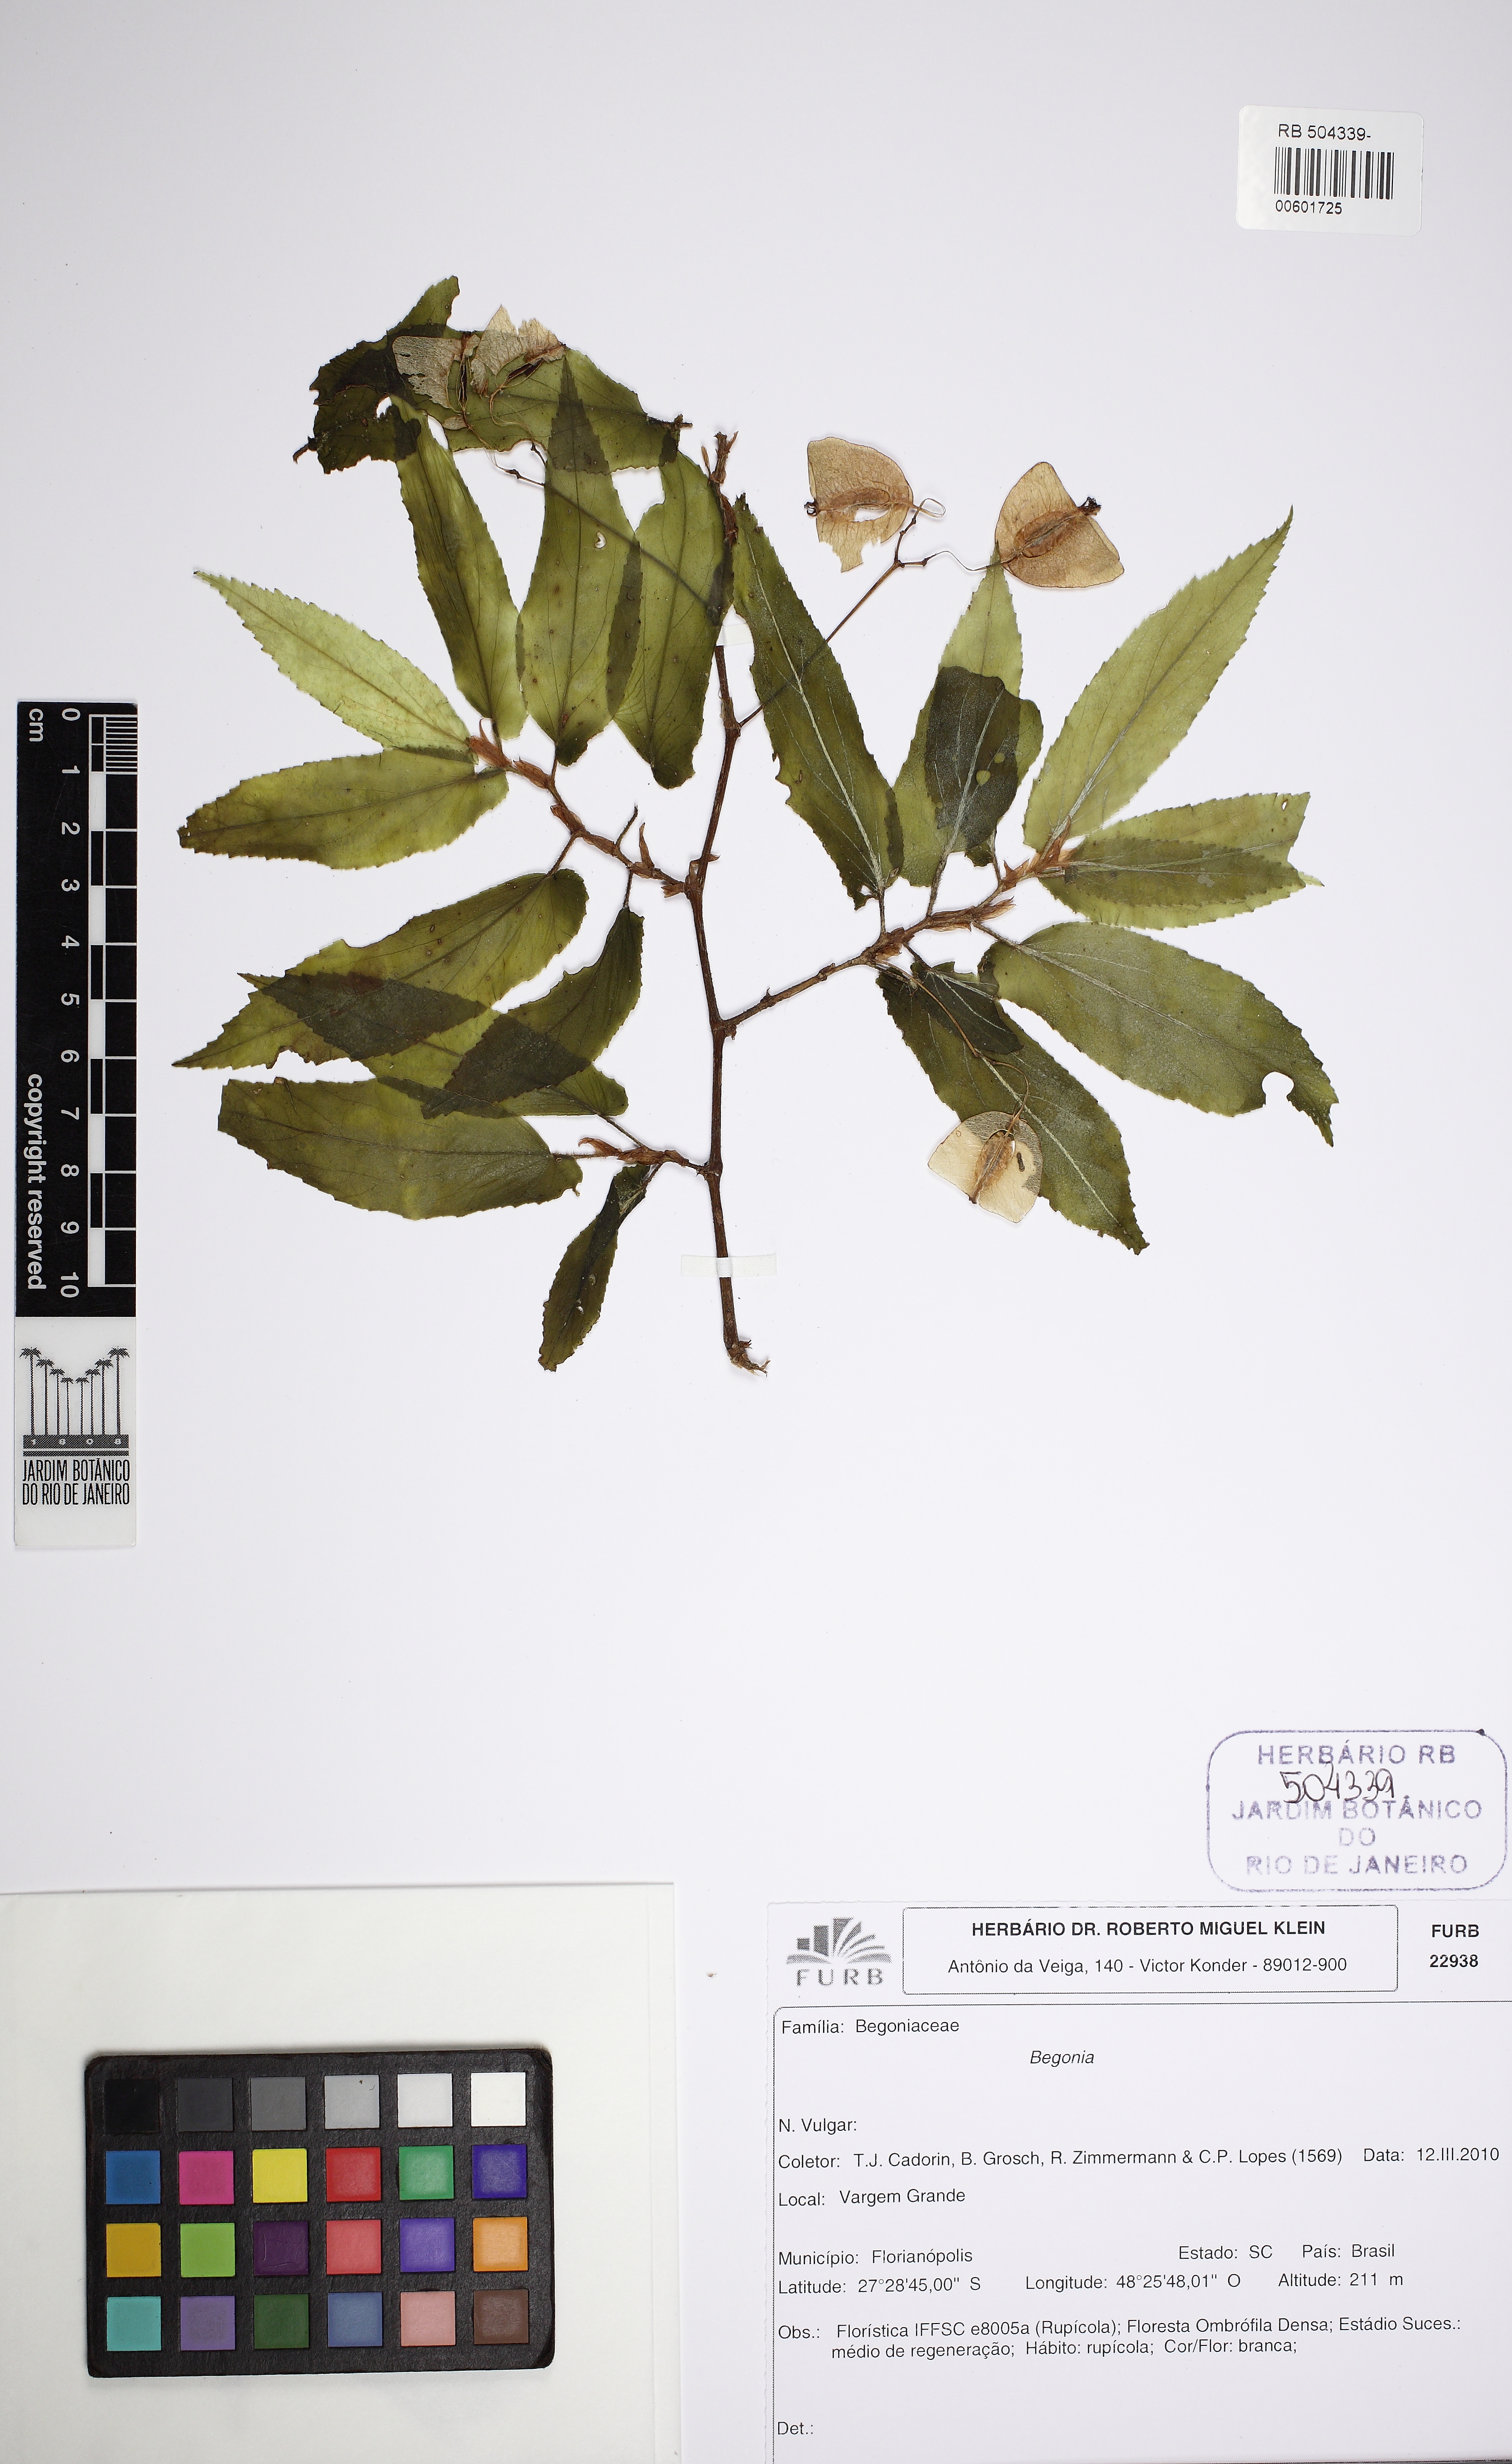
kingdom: Plantae
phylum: Tracheophyta
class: Magnoliopsida
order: Cucurbitales
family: Begoniaceae
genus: Begonia
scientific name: Begonia echinosepala
